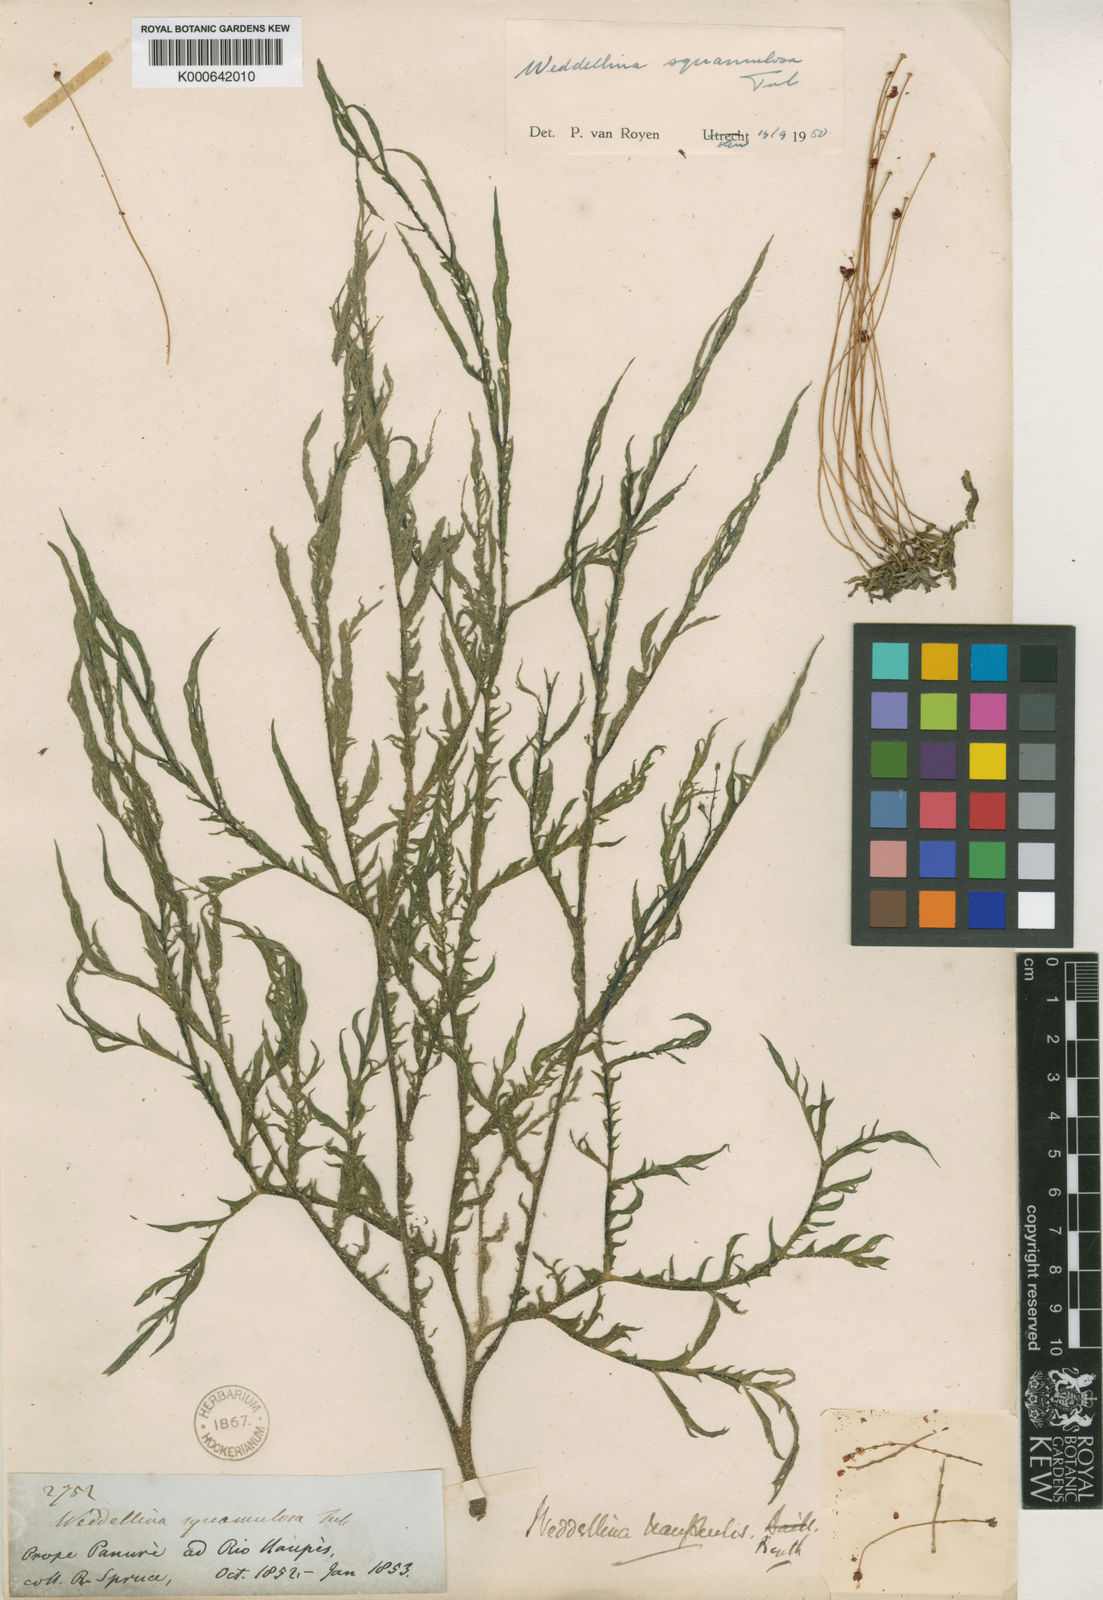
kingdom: Plantae
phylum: Tracheophyta
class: Magnoliopsida
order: Malpighiales
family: Podostemaceae
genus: Weddellina
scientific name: Weddellina squamulosa
